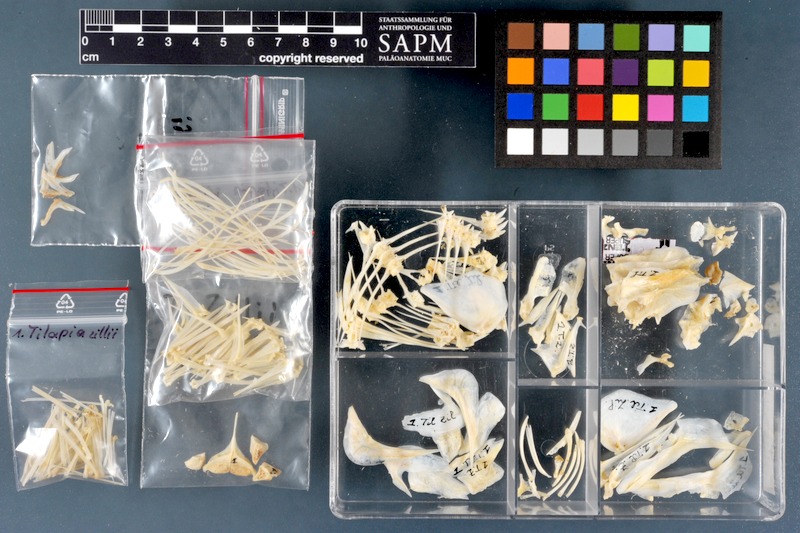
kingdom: Animalia
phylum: Chordata
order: Perciformes
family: Cichlidae
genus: Coptodon
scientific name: Coptodon zillii
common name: Redbelly tilapia
